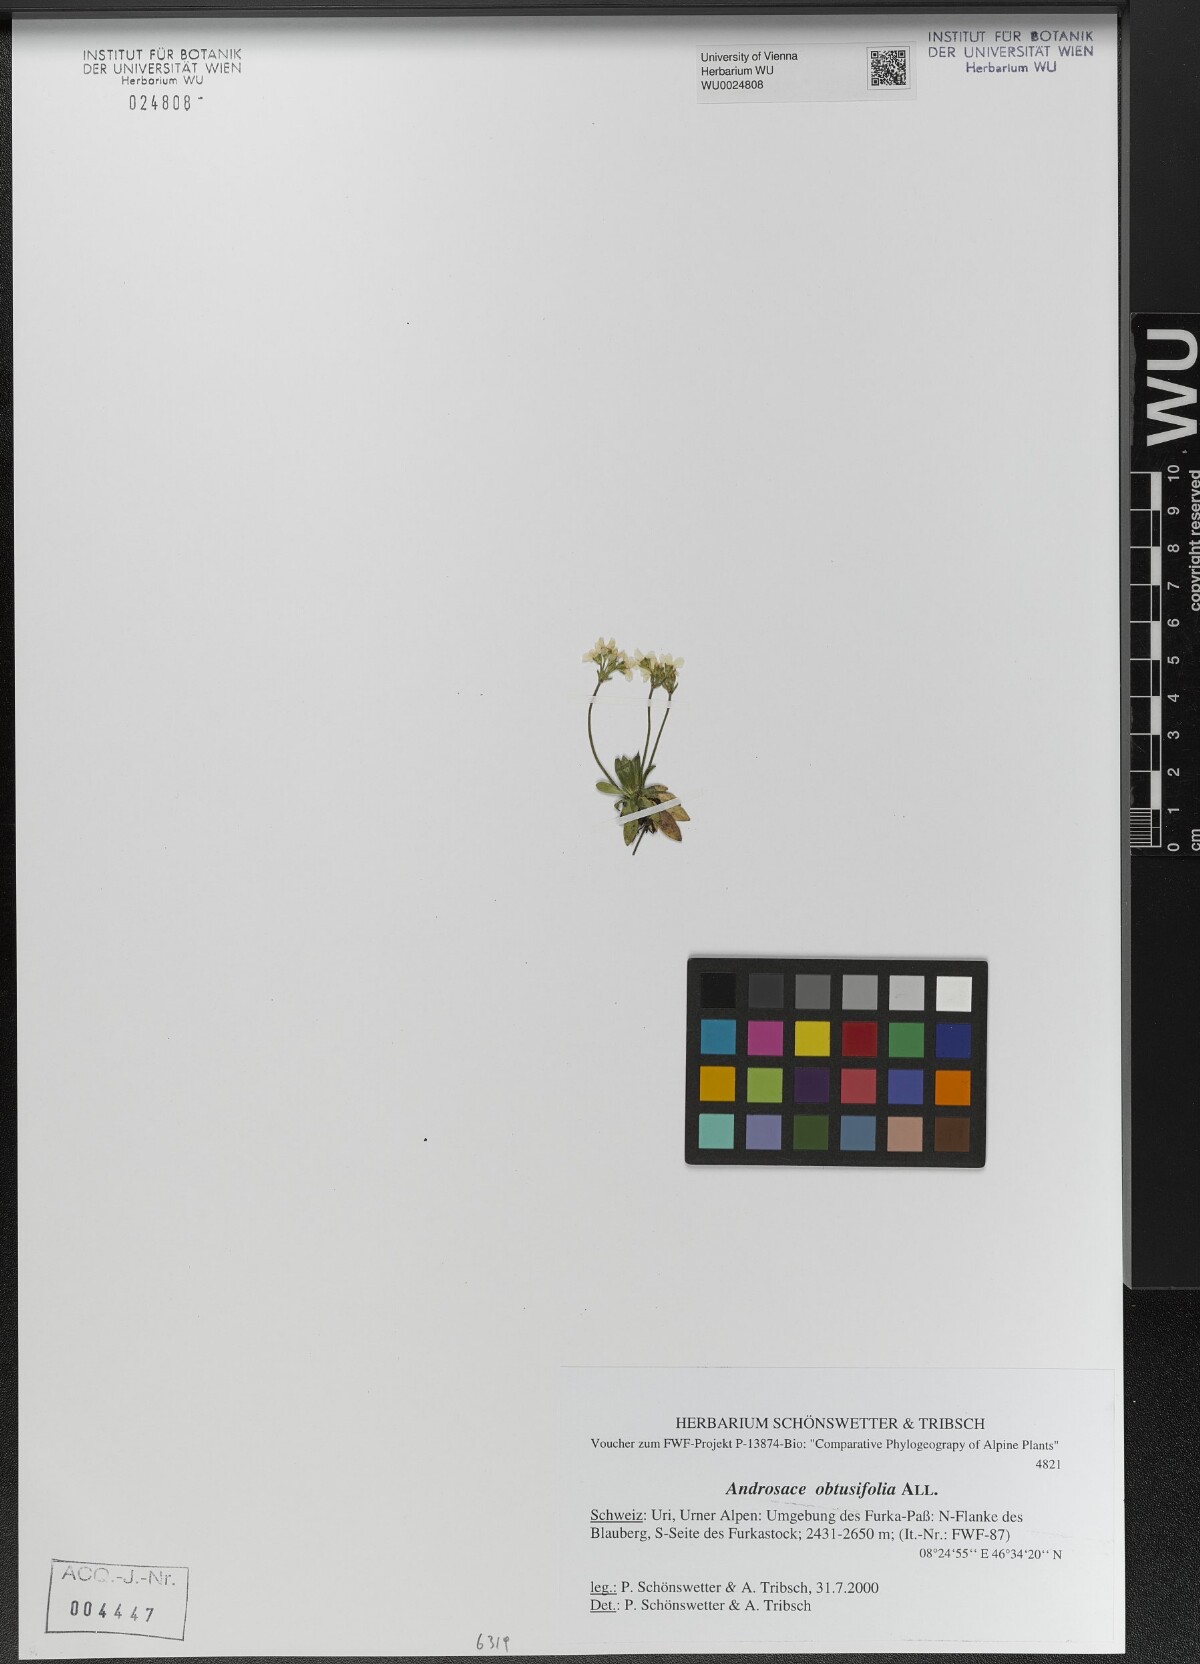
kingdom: Plantae
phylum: Tracheophyta
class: Magnoliopsida
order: Ericales
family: Primulaceae
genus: Androsace
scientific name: Androsace obtusifolia
